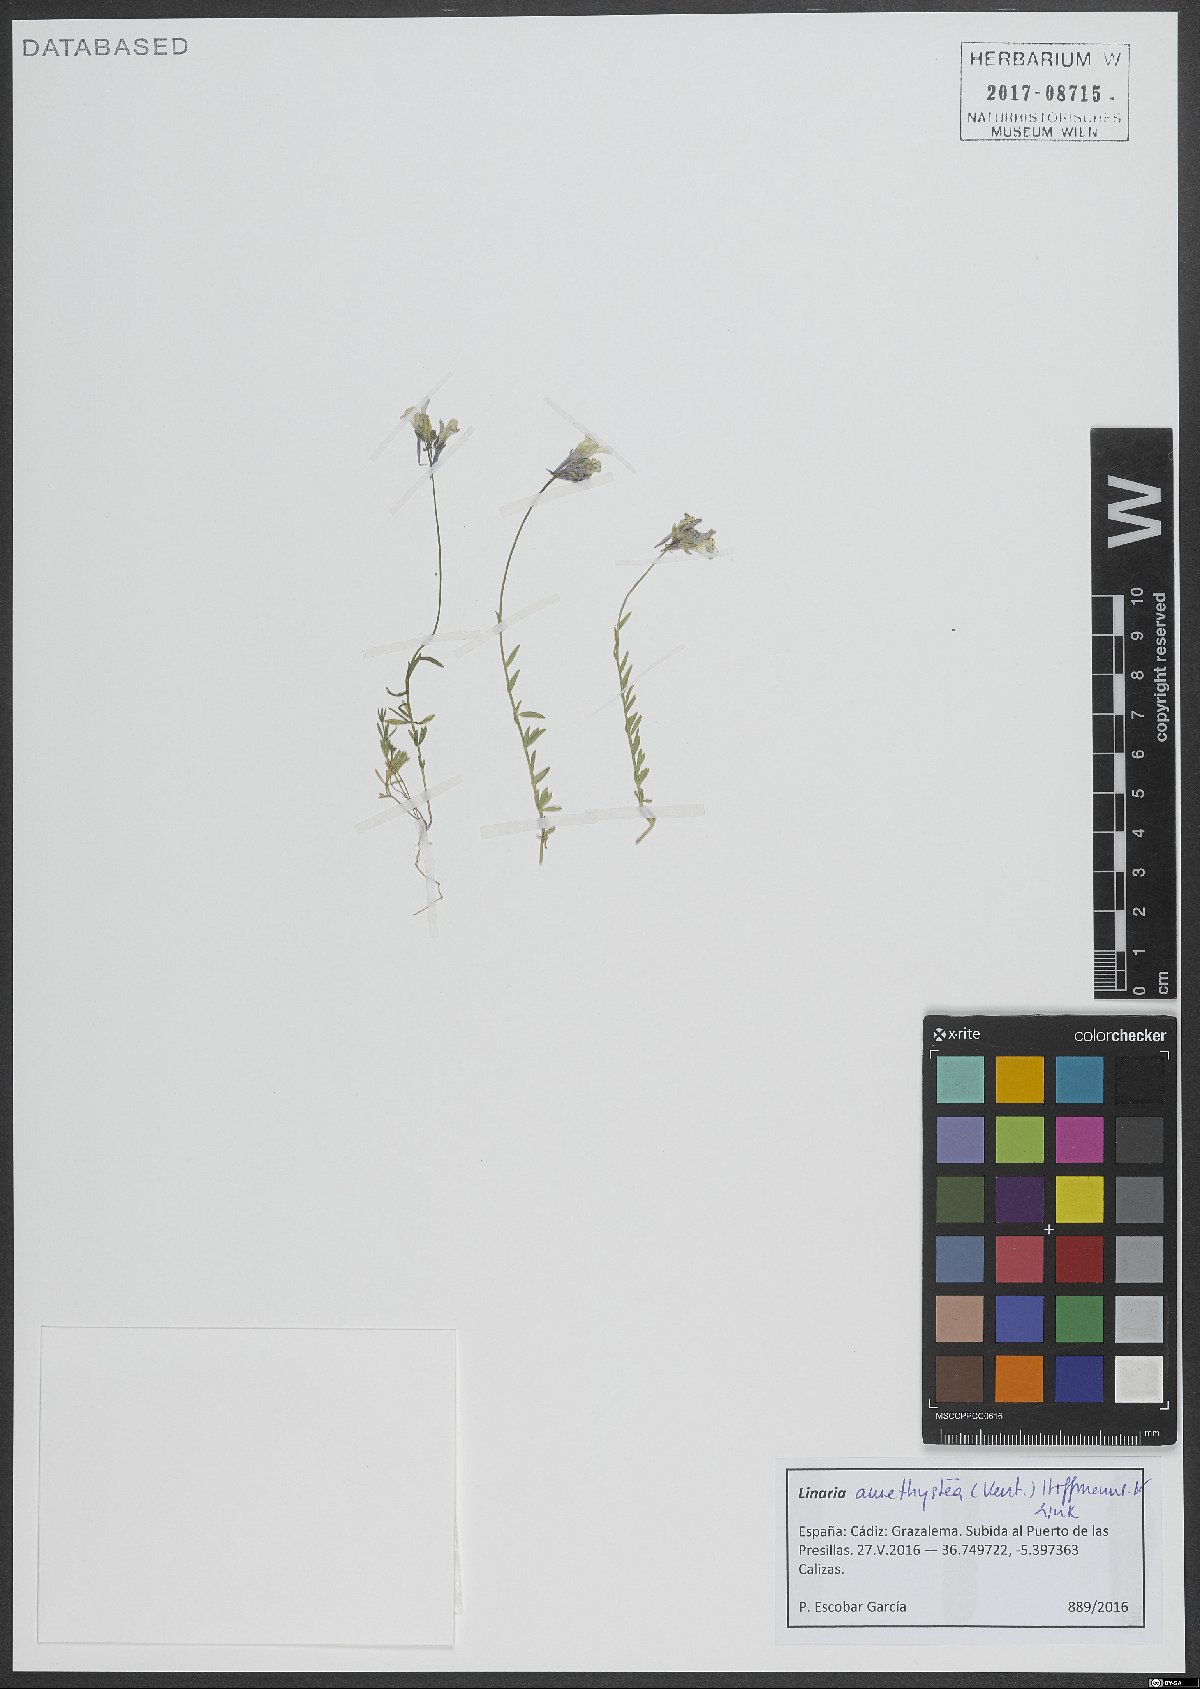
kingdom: Plantae
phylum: Tracheophyta
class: Magnoliopsida
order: Lamiales
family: Plantaginaceae
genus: Linaria
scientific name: Linaria amethystea
